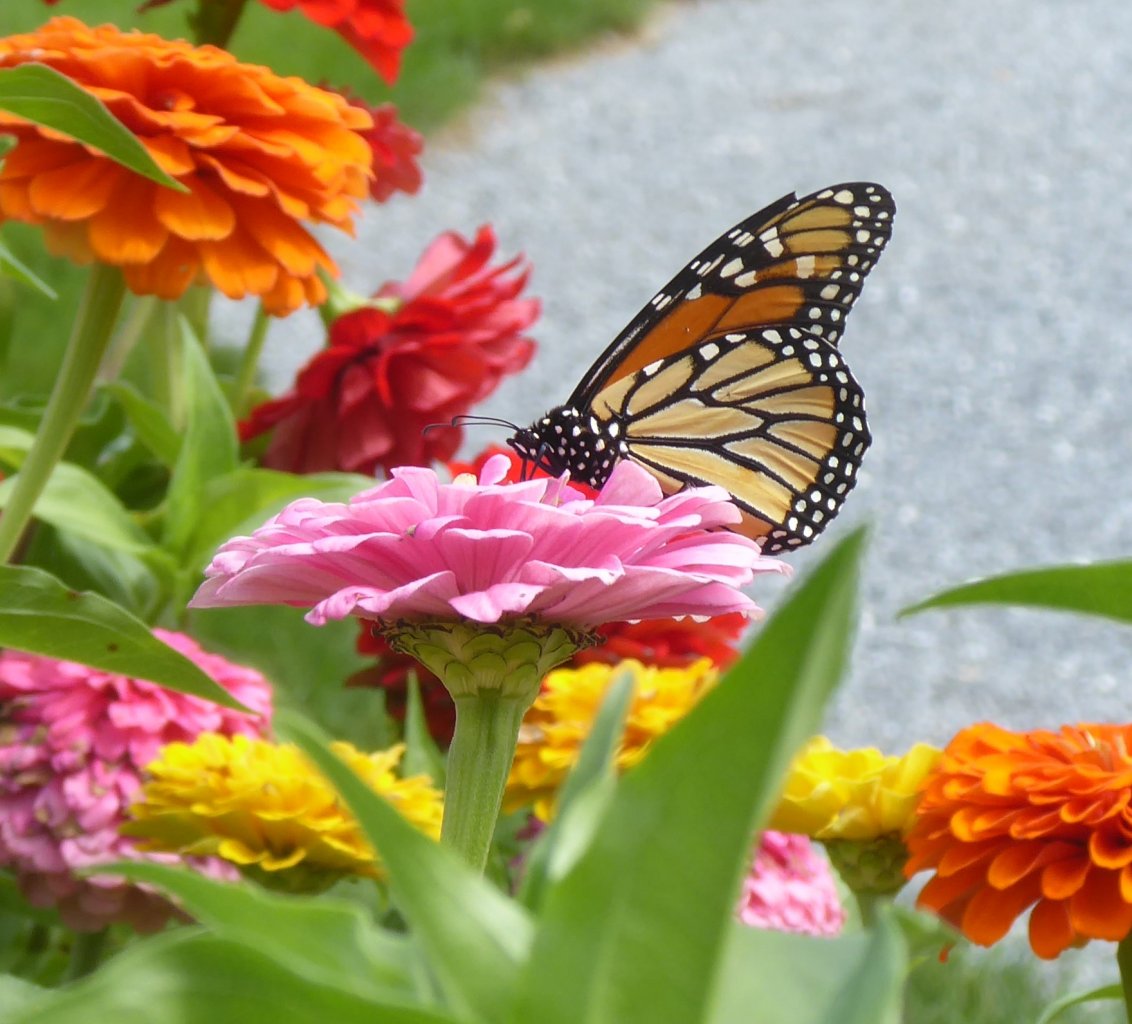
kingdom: Animalia
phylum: Arthropoda
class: Insecta
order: Lepidoptera
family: Nymphalidae
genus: Danaus
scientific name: Danaus plexippus
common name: Monarch
